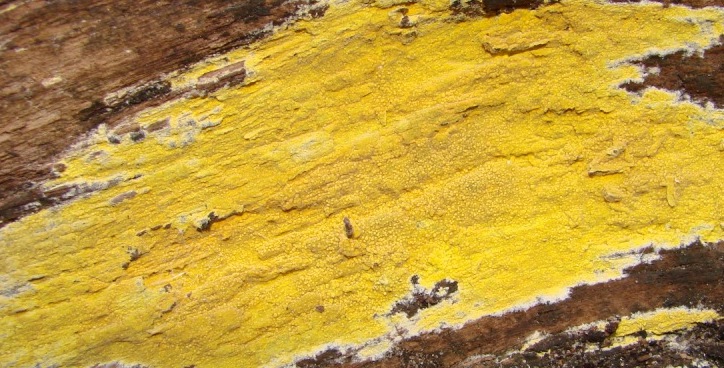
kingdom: Fungi
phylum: Basidiomycota
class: Agaricomycetes
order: Polyporales
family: Meruliaceae
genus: Phlebiodontia
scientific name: Phlebiodontia subochracea
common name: svovl-åresvamp
